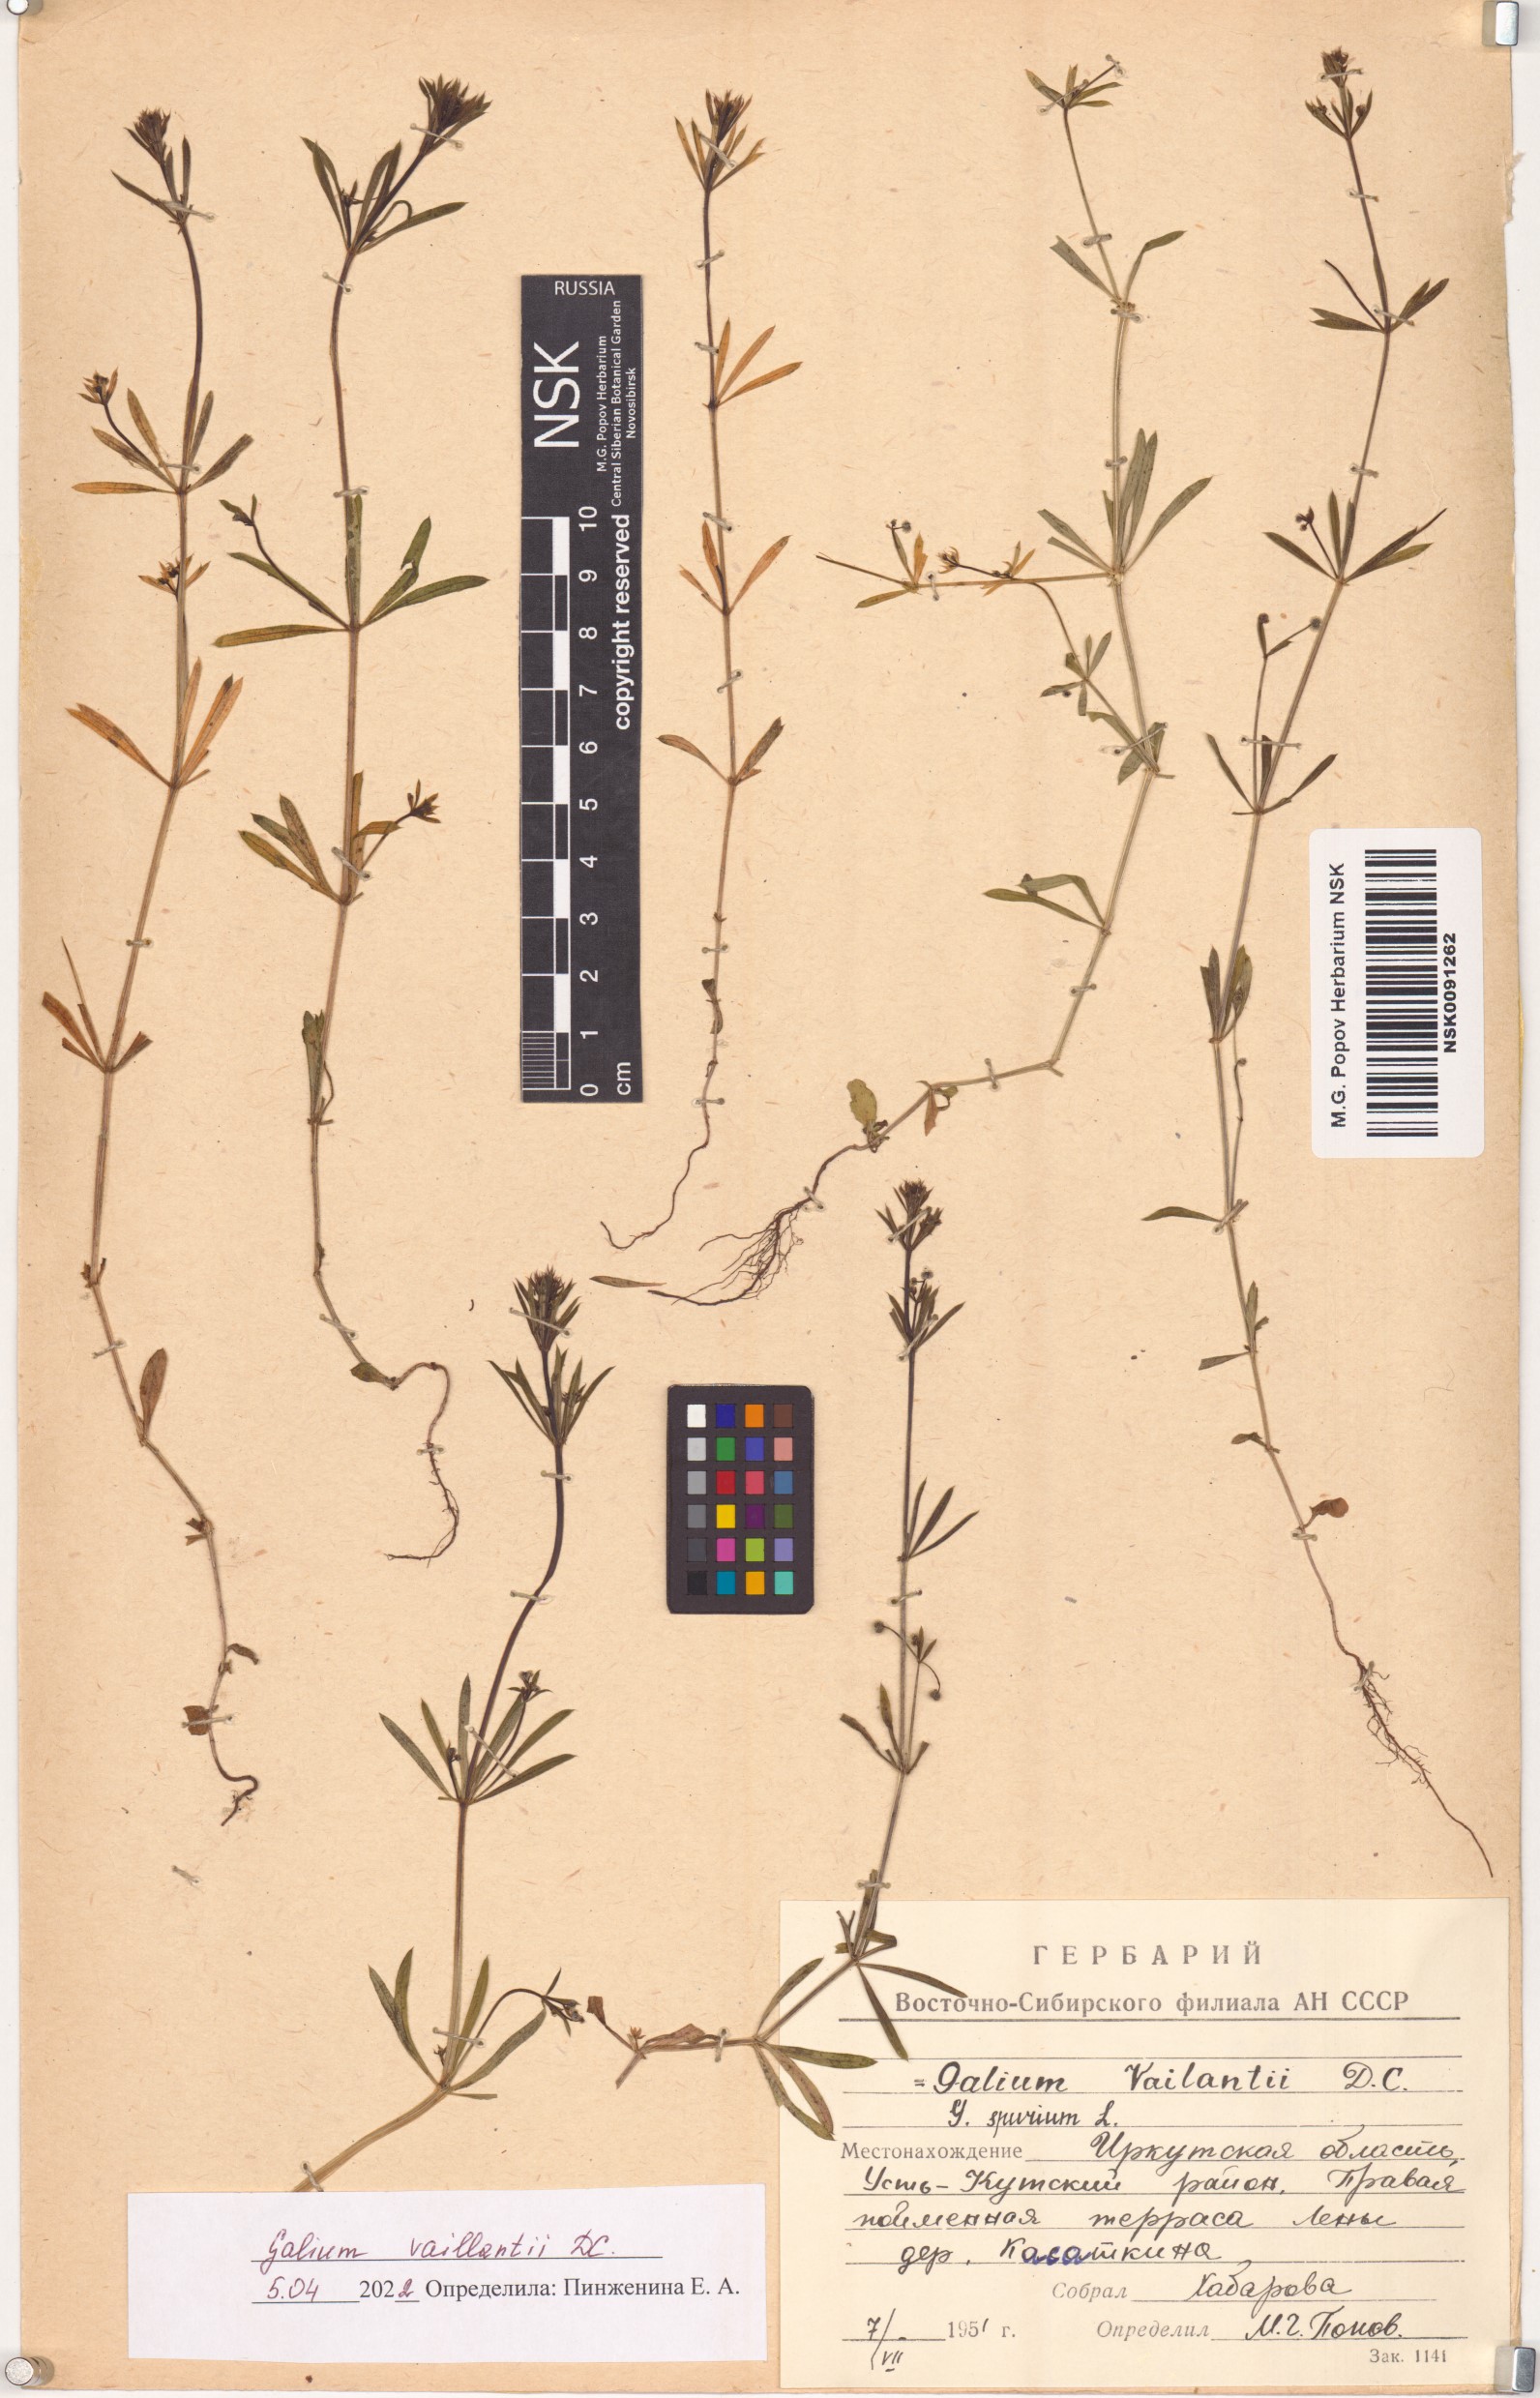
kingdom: Plantae
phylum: Tracheophyta
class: Magnoliopsida
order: Gentianales
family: Rubiaceae
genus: Galium
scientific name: Galium spurium
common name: False cleavers
